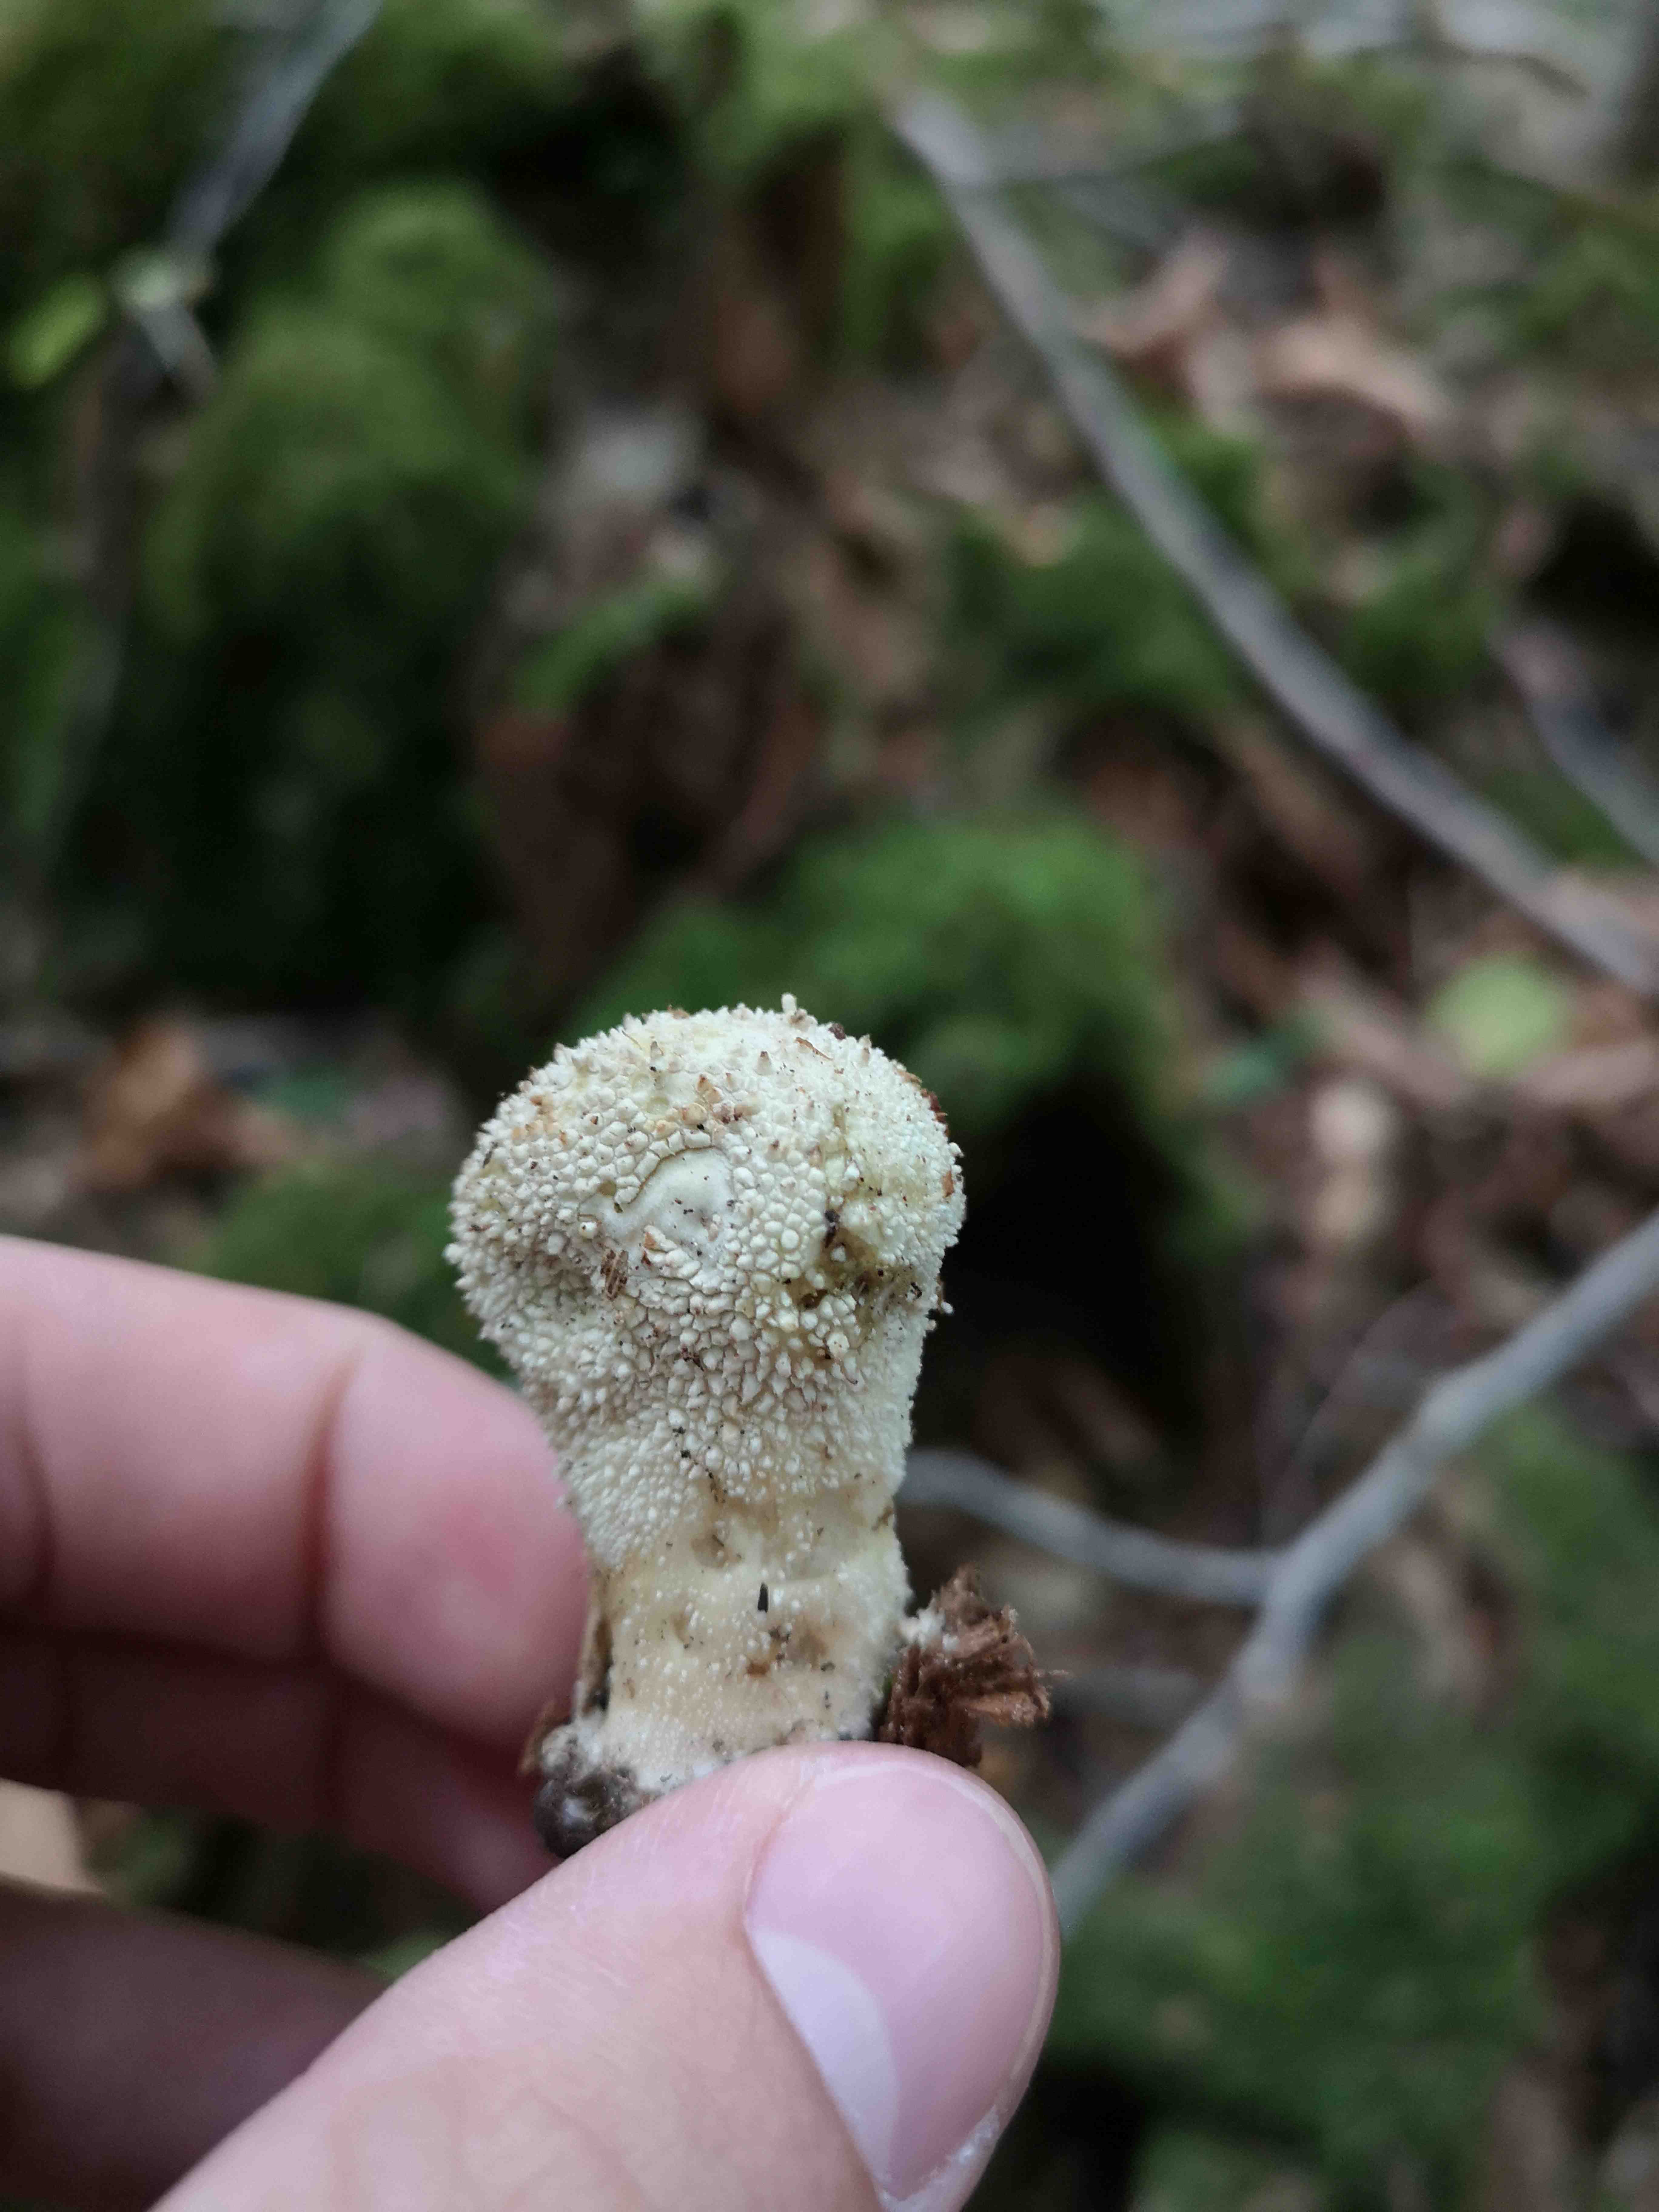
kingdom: Fungi
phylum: Basidiomycota
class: Agaricomycetes
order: Agaricales
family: Lycoperdaceae
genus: Lycoperdon
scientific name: Lycoperdon perlatum
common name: krystal-støvbold
